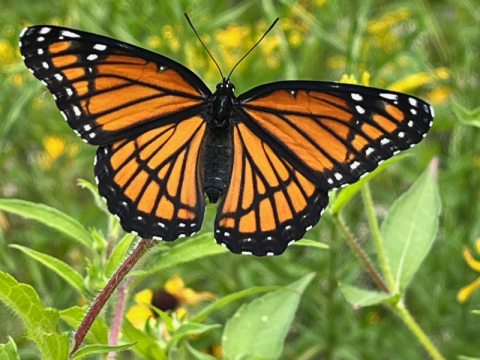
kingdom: Animalia
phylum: Arthropoda
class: Insecta
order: Lepidoptera
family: Nymphalidae
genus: Limenitis
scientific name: Limenitis archippus
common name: Viceroy
